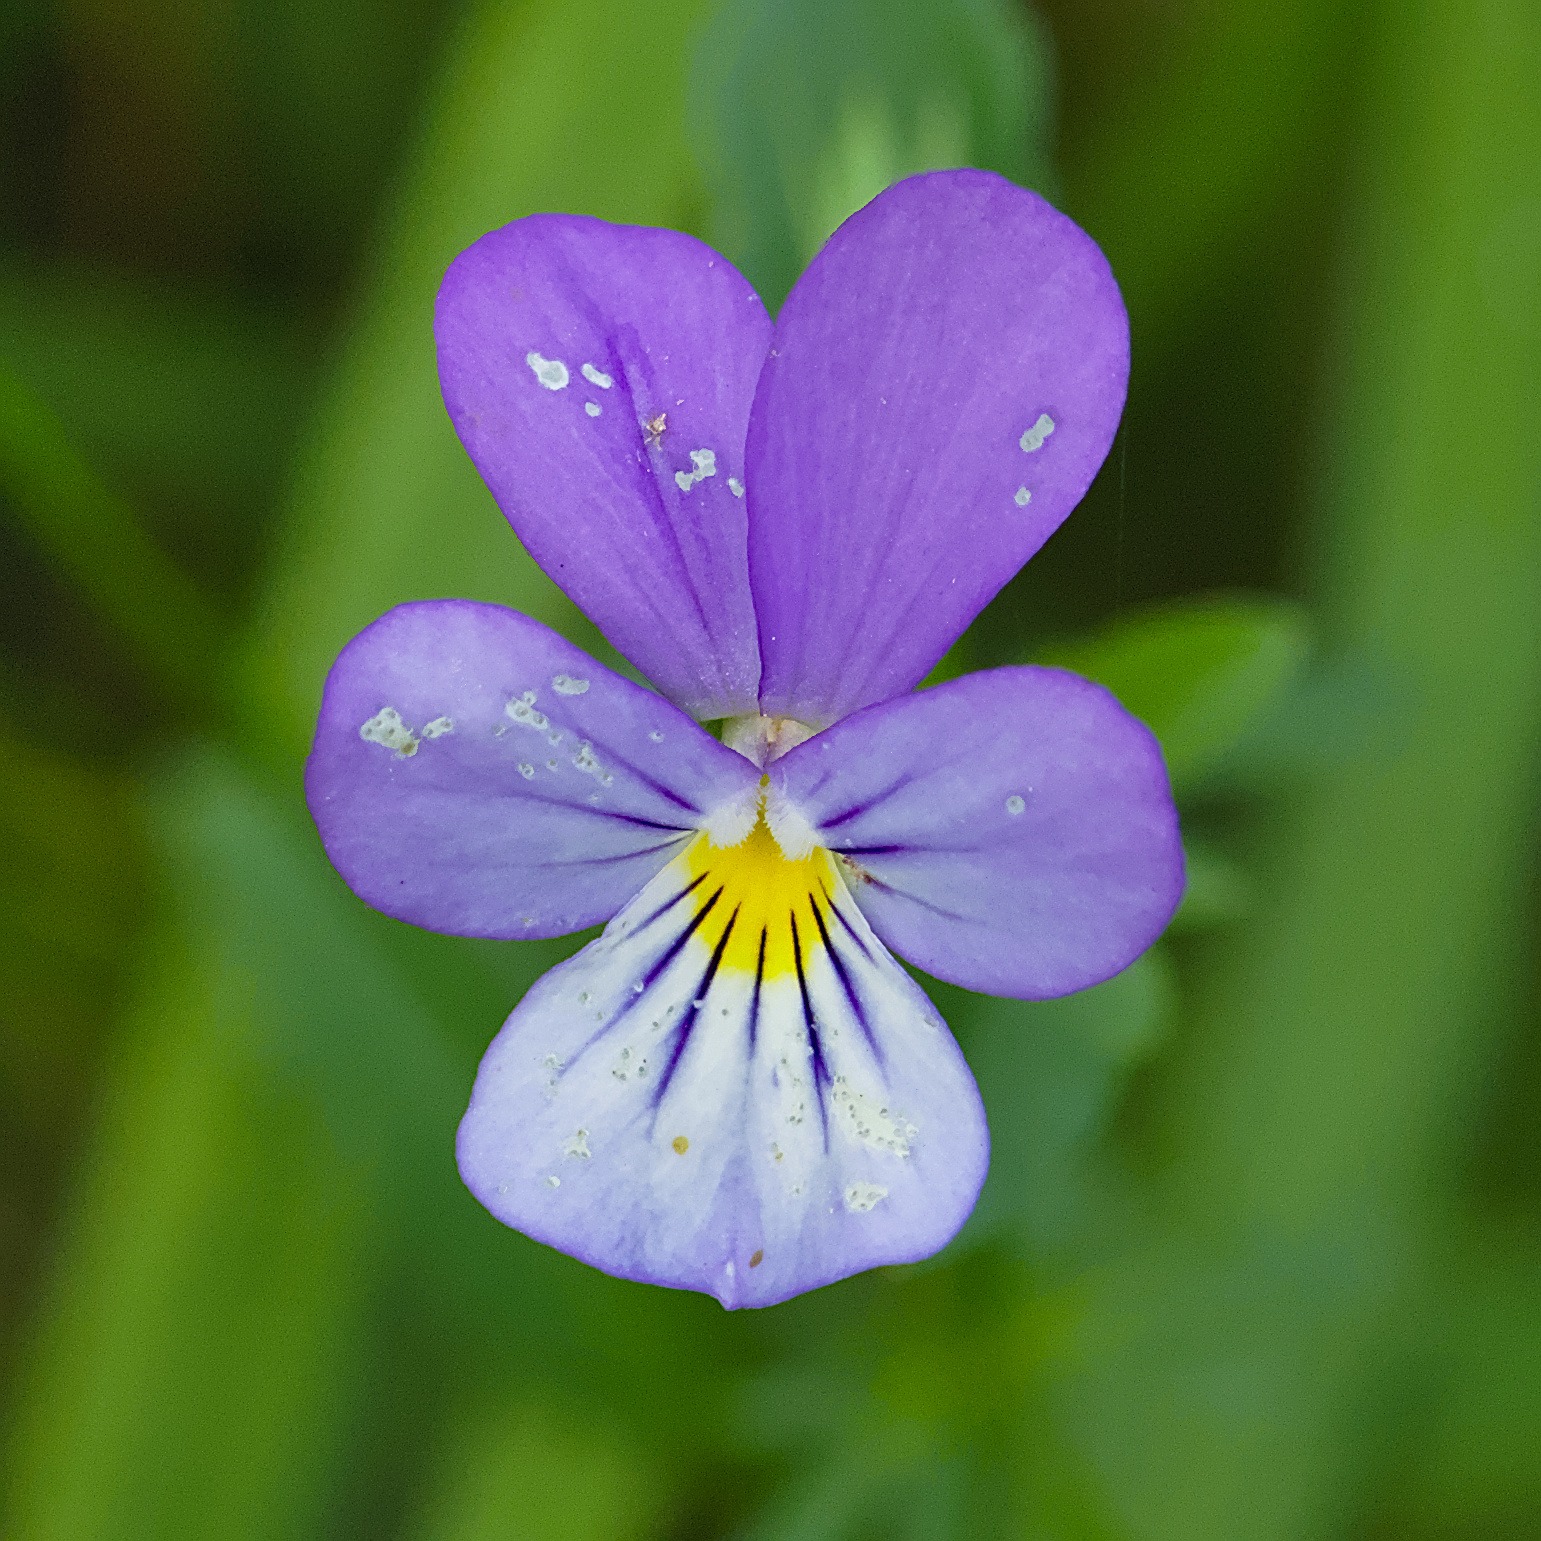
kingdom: Plantae
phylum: Tracheophyta
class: Magnoliopsida
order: Malpighiales
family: Violaceae
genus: Viola
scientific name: Viola tricolor
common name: Stedmoderblomst
